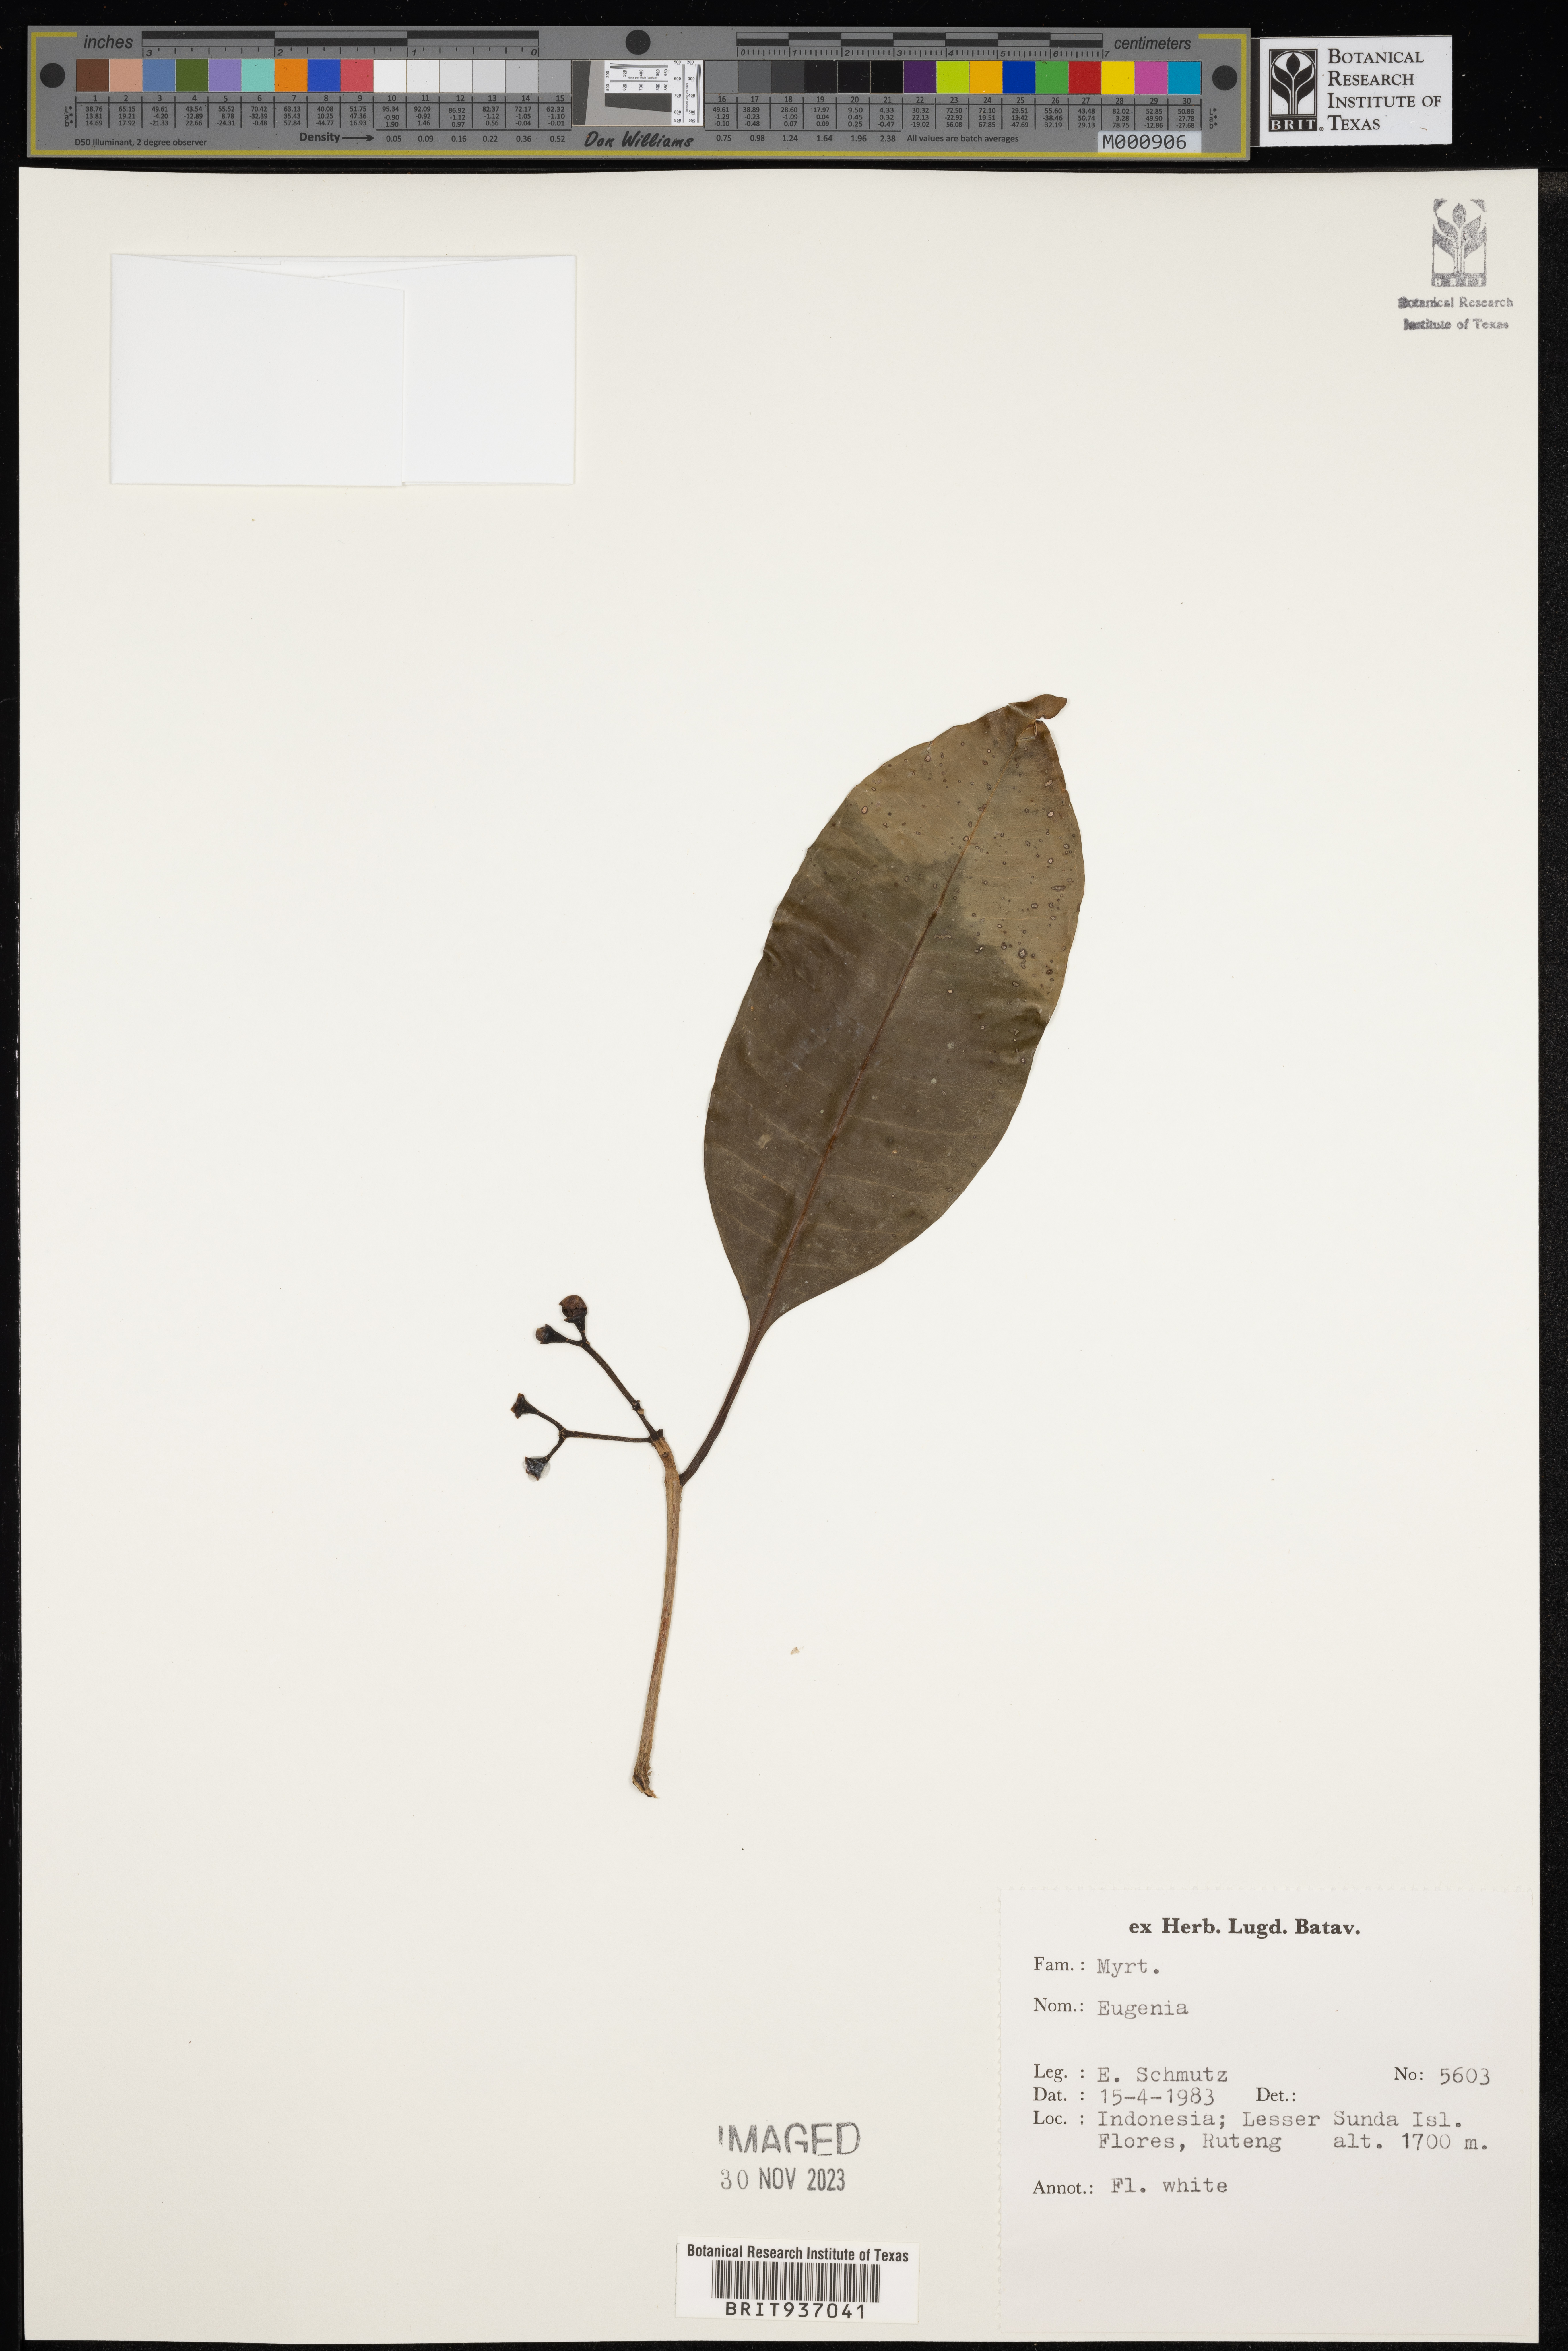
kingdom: Plantae
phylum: Tracheophyta
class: Magnoliopsida
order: Myrtales
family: Myrtaceae
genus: Eugenia
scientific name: Eugenia
